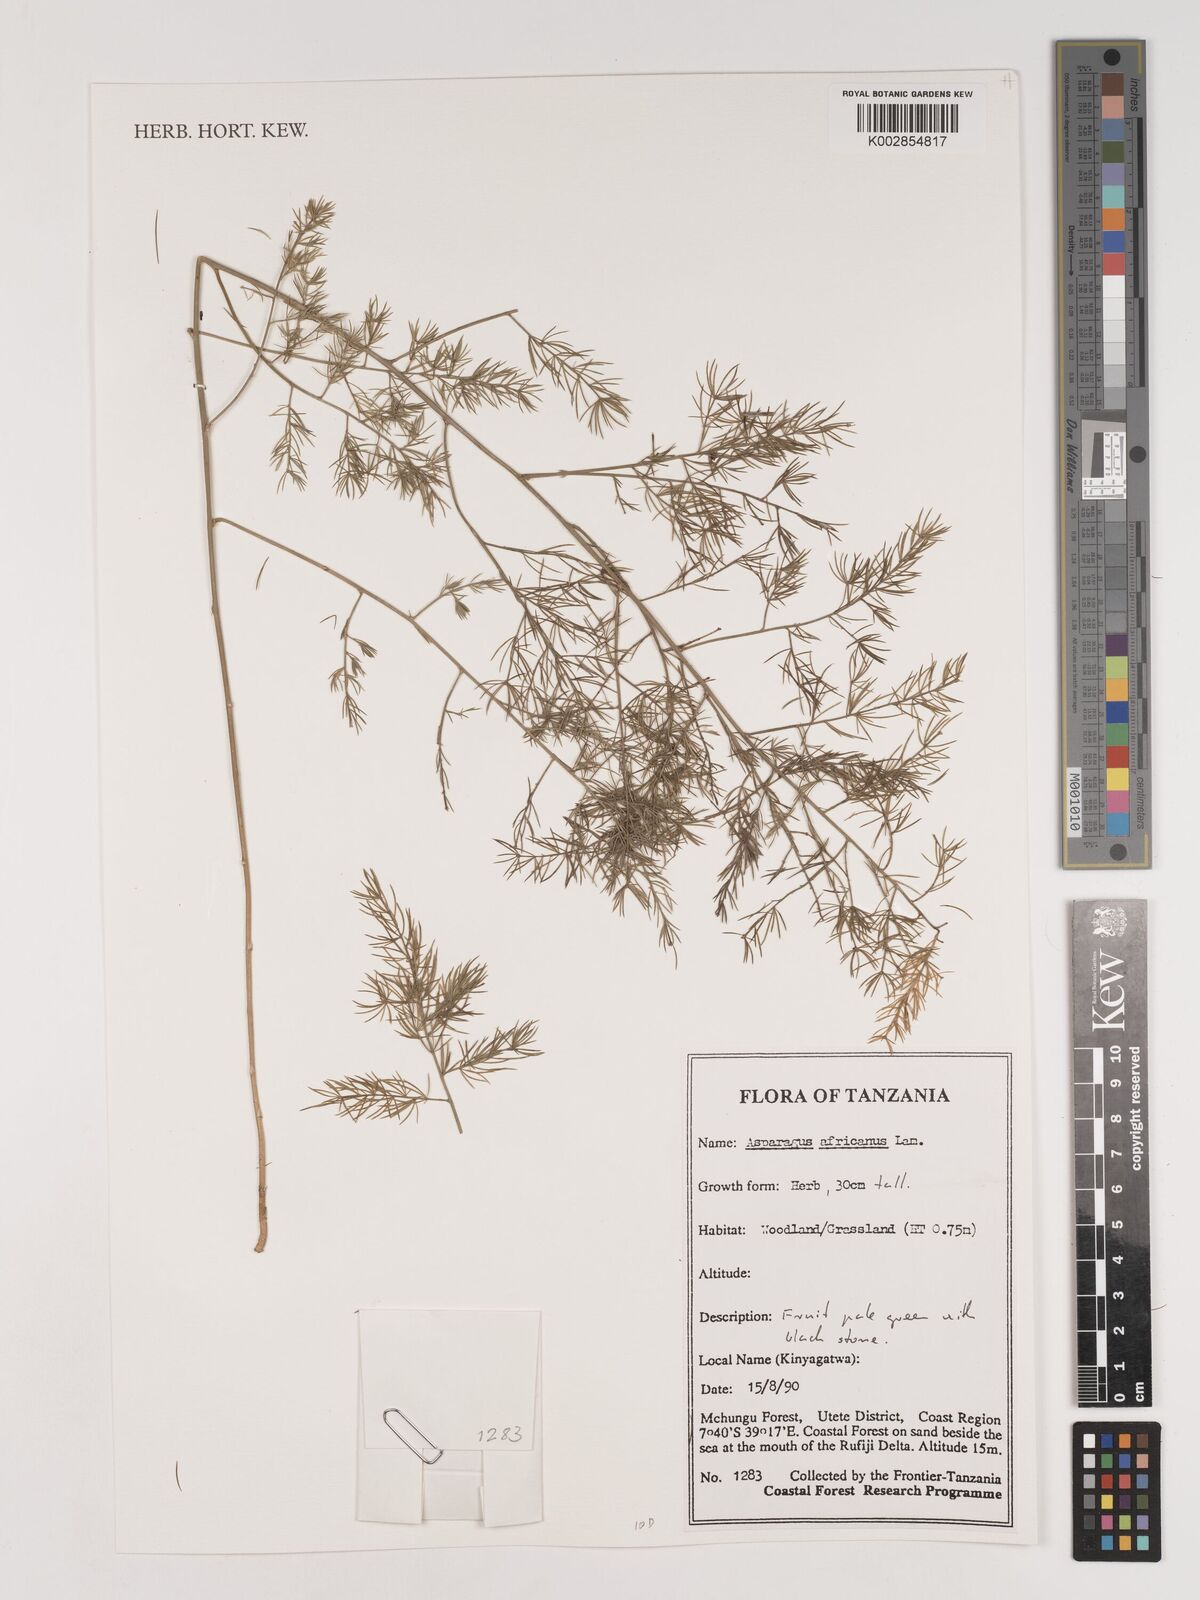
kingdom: Plantae
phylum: Tracheophyta
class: Liliopsida
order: Asparagales
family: Asparagaceae
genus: Asparagus
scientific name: Asparagus africanus
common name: Asparagus-fern
